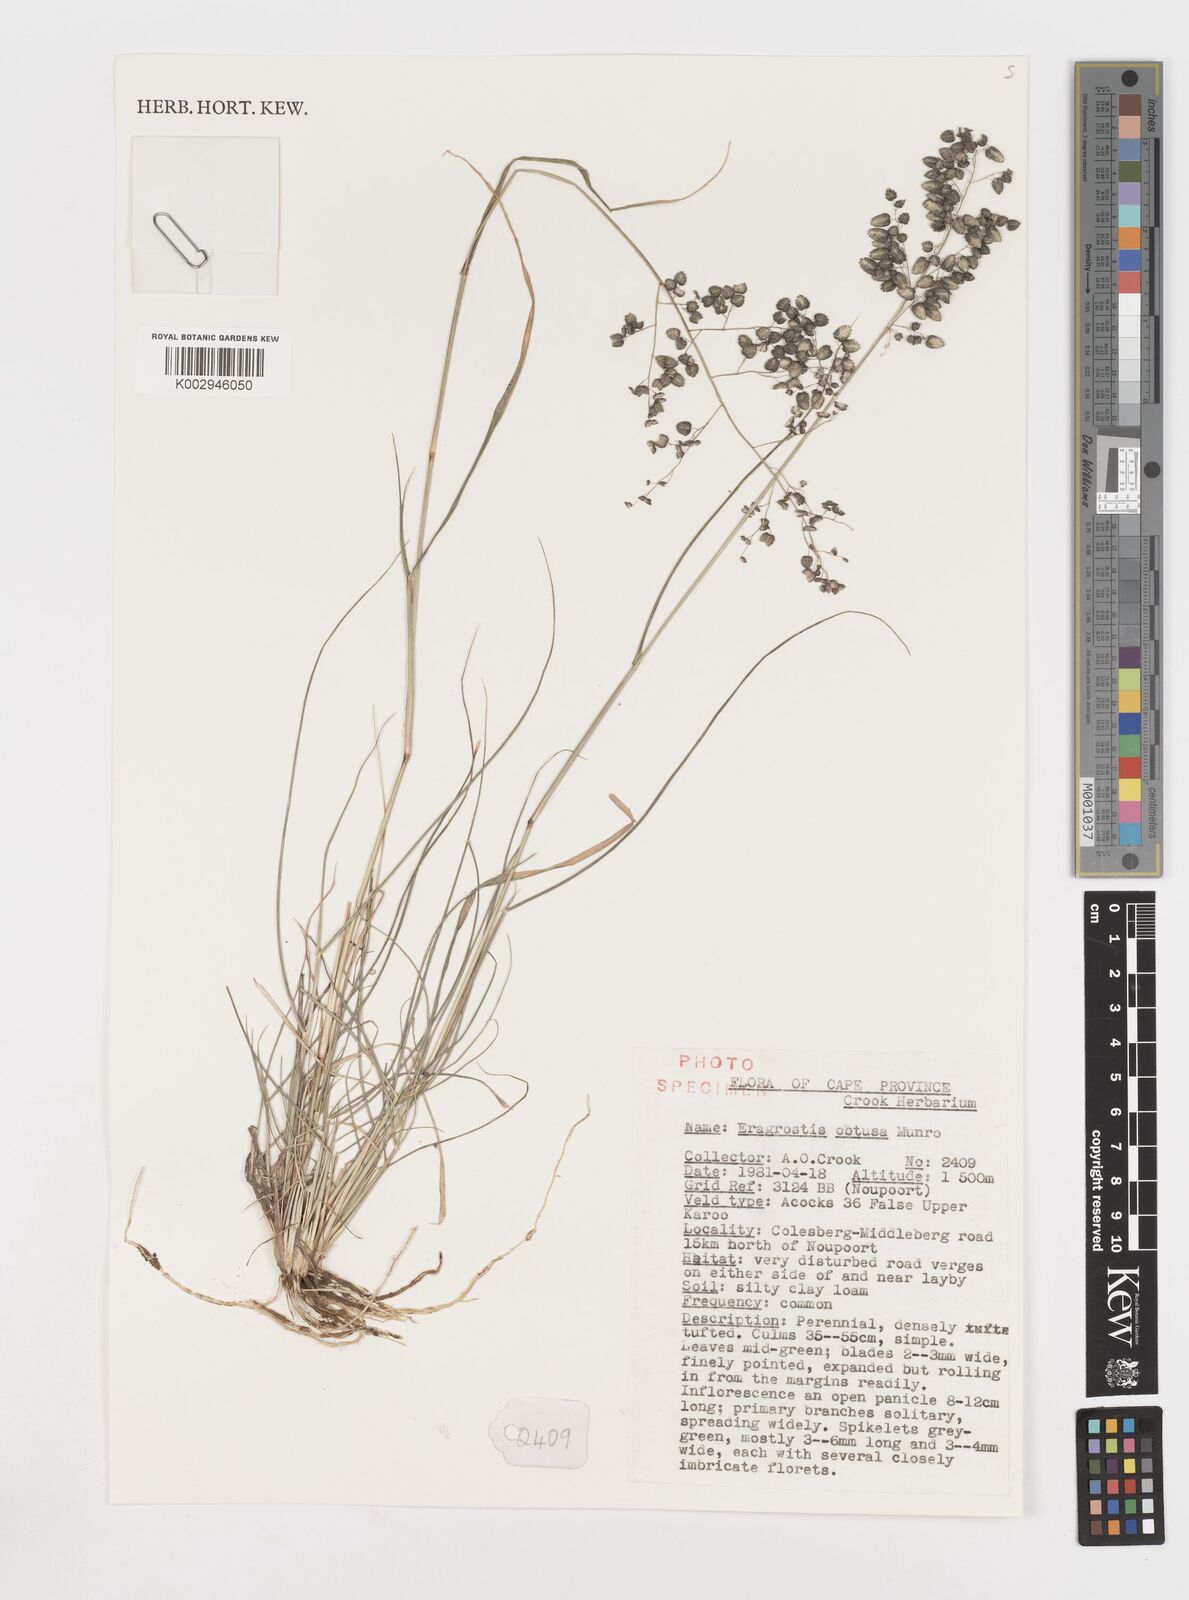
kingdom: Plantae
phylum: Tracheophyta
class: Liliopsida
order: Poales
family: Poaceae
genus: Eragrostis
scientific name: Eragrostis obtusa
